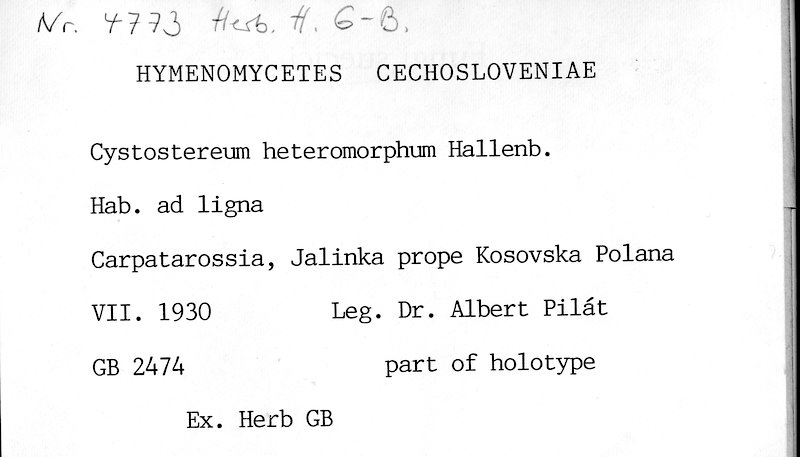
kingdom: Fungi
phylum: Basidiomycota
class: Agaricomycetes
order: Agaricales
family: Cystostereaceae
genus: Cystostereum
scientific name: Cystostereum heteromorphum
